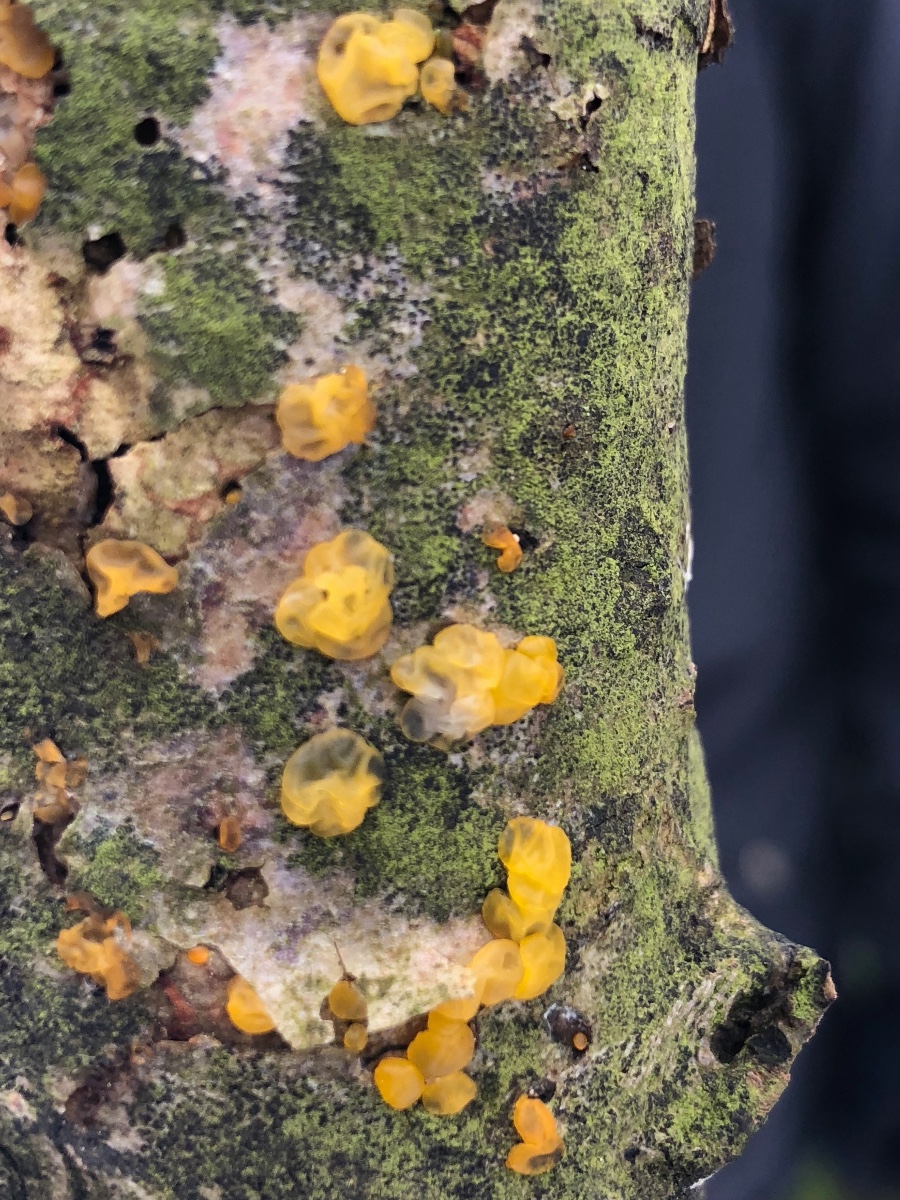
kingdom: Fungi
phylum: Basidiomycota
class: Dacrymycetes
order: Dacrymycetales
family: Dacrymycetaceae
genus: Dacrymyces
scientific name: Dacrymyces lacrymalis
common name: rynket tåresvamp
